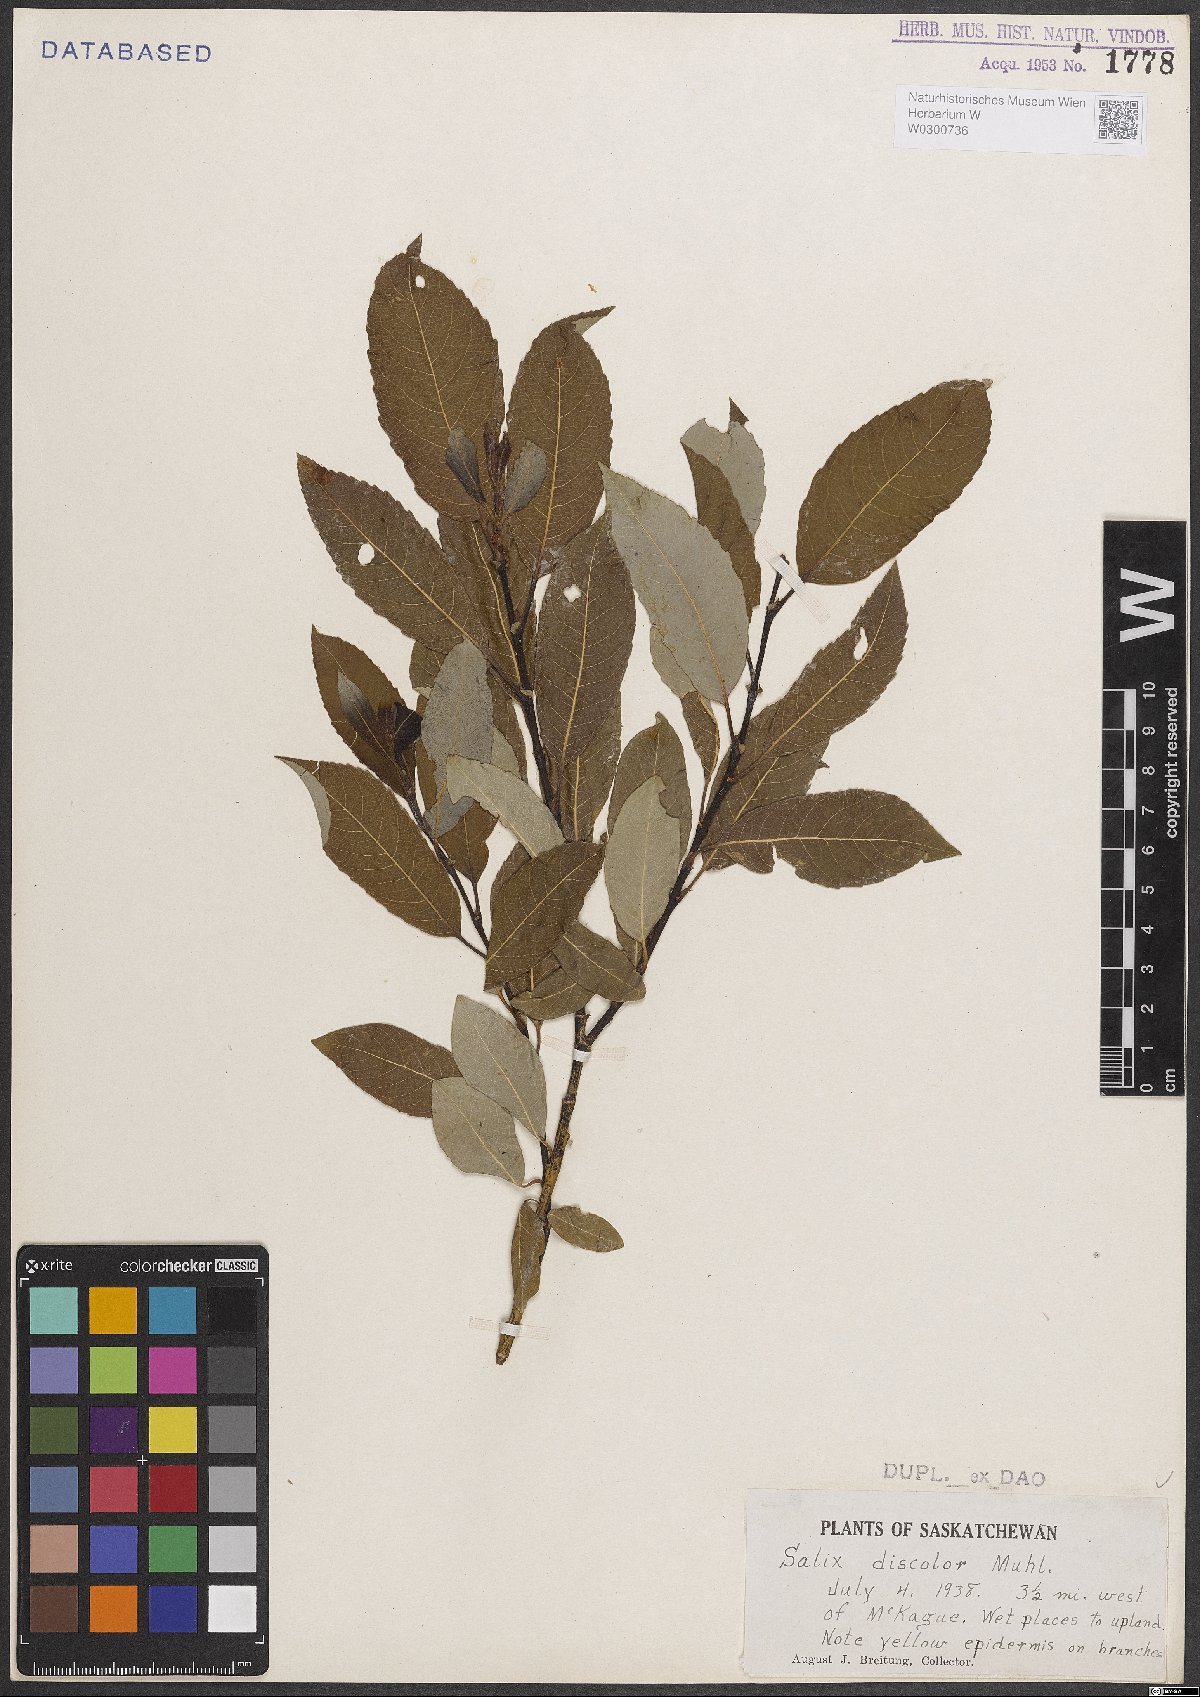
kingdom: Plantae
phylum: Tracheophyta
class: Magnoliopsida
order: Malpighiales
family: Salicaceae
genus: Salix
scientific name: Salix discolor
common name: Glaucous willow
